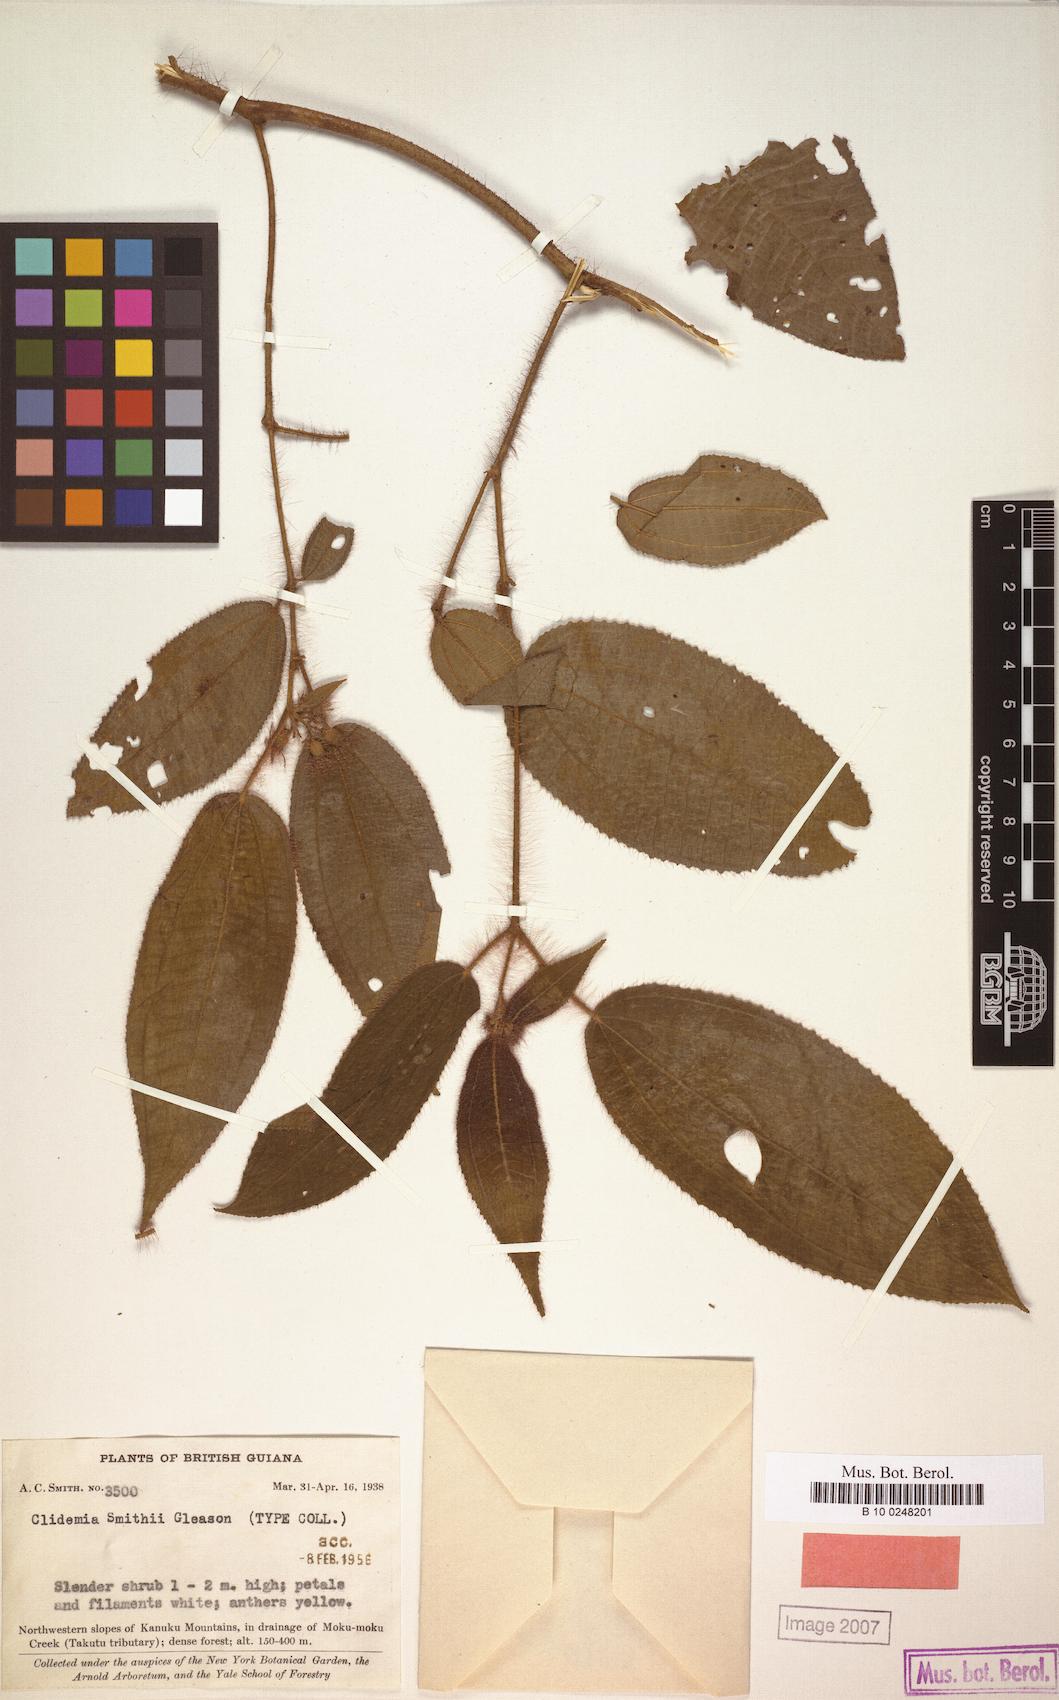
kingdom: Plantae
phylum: Tracheophyta
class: Magnoliopsida
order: Myrtales
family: Melastomataceae
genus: Miconia
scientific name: Miconia laevifolia
